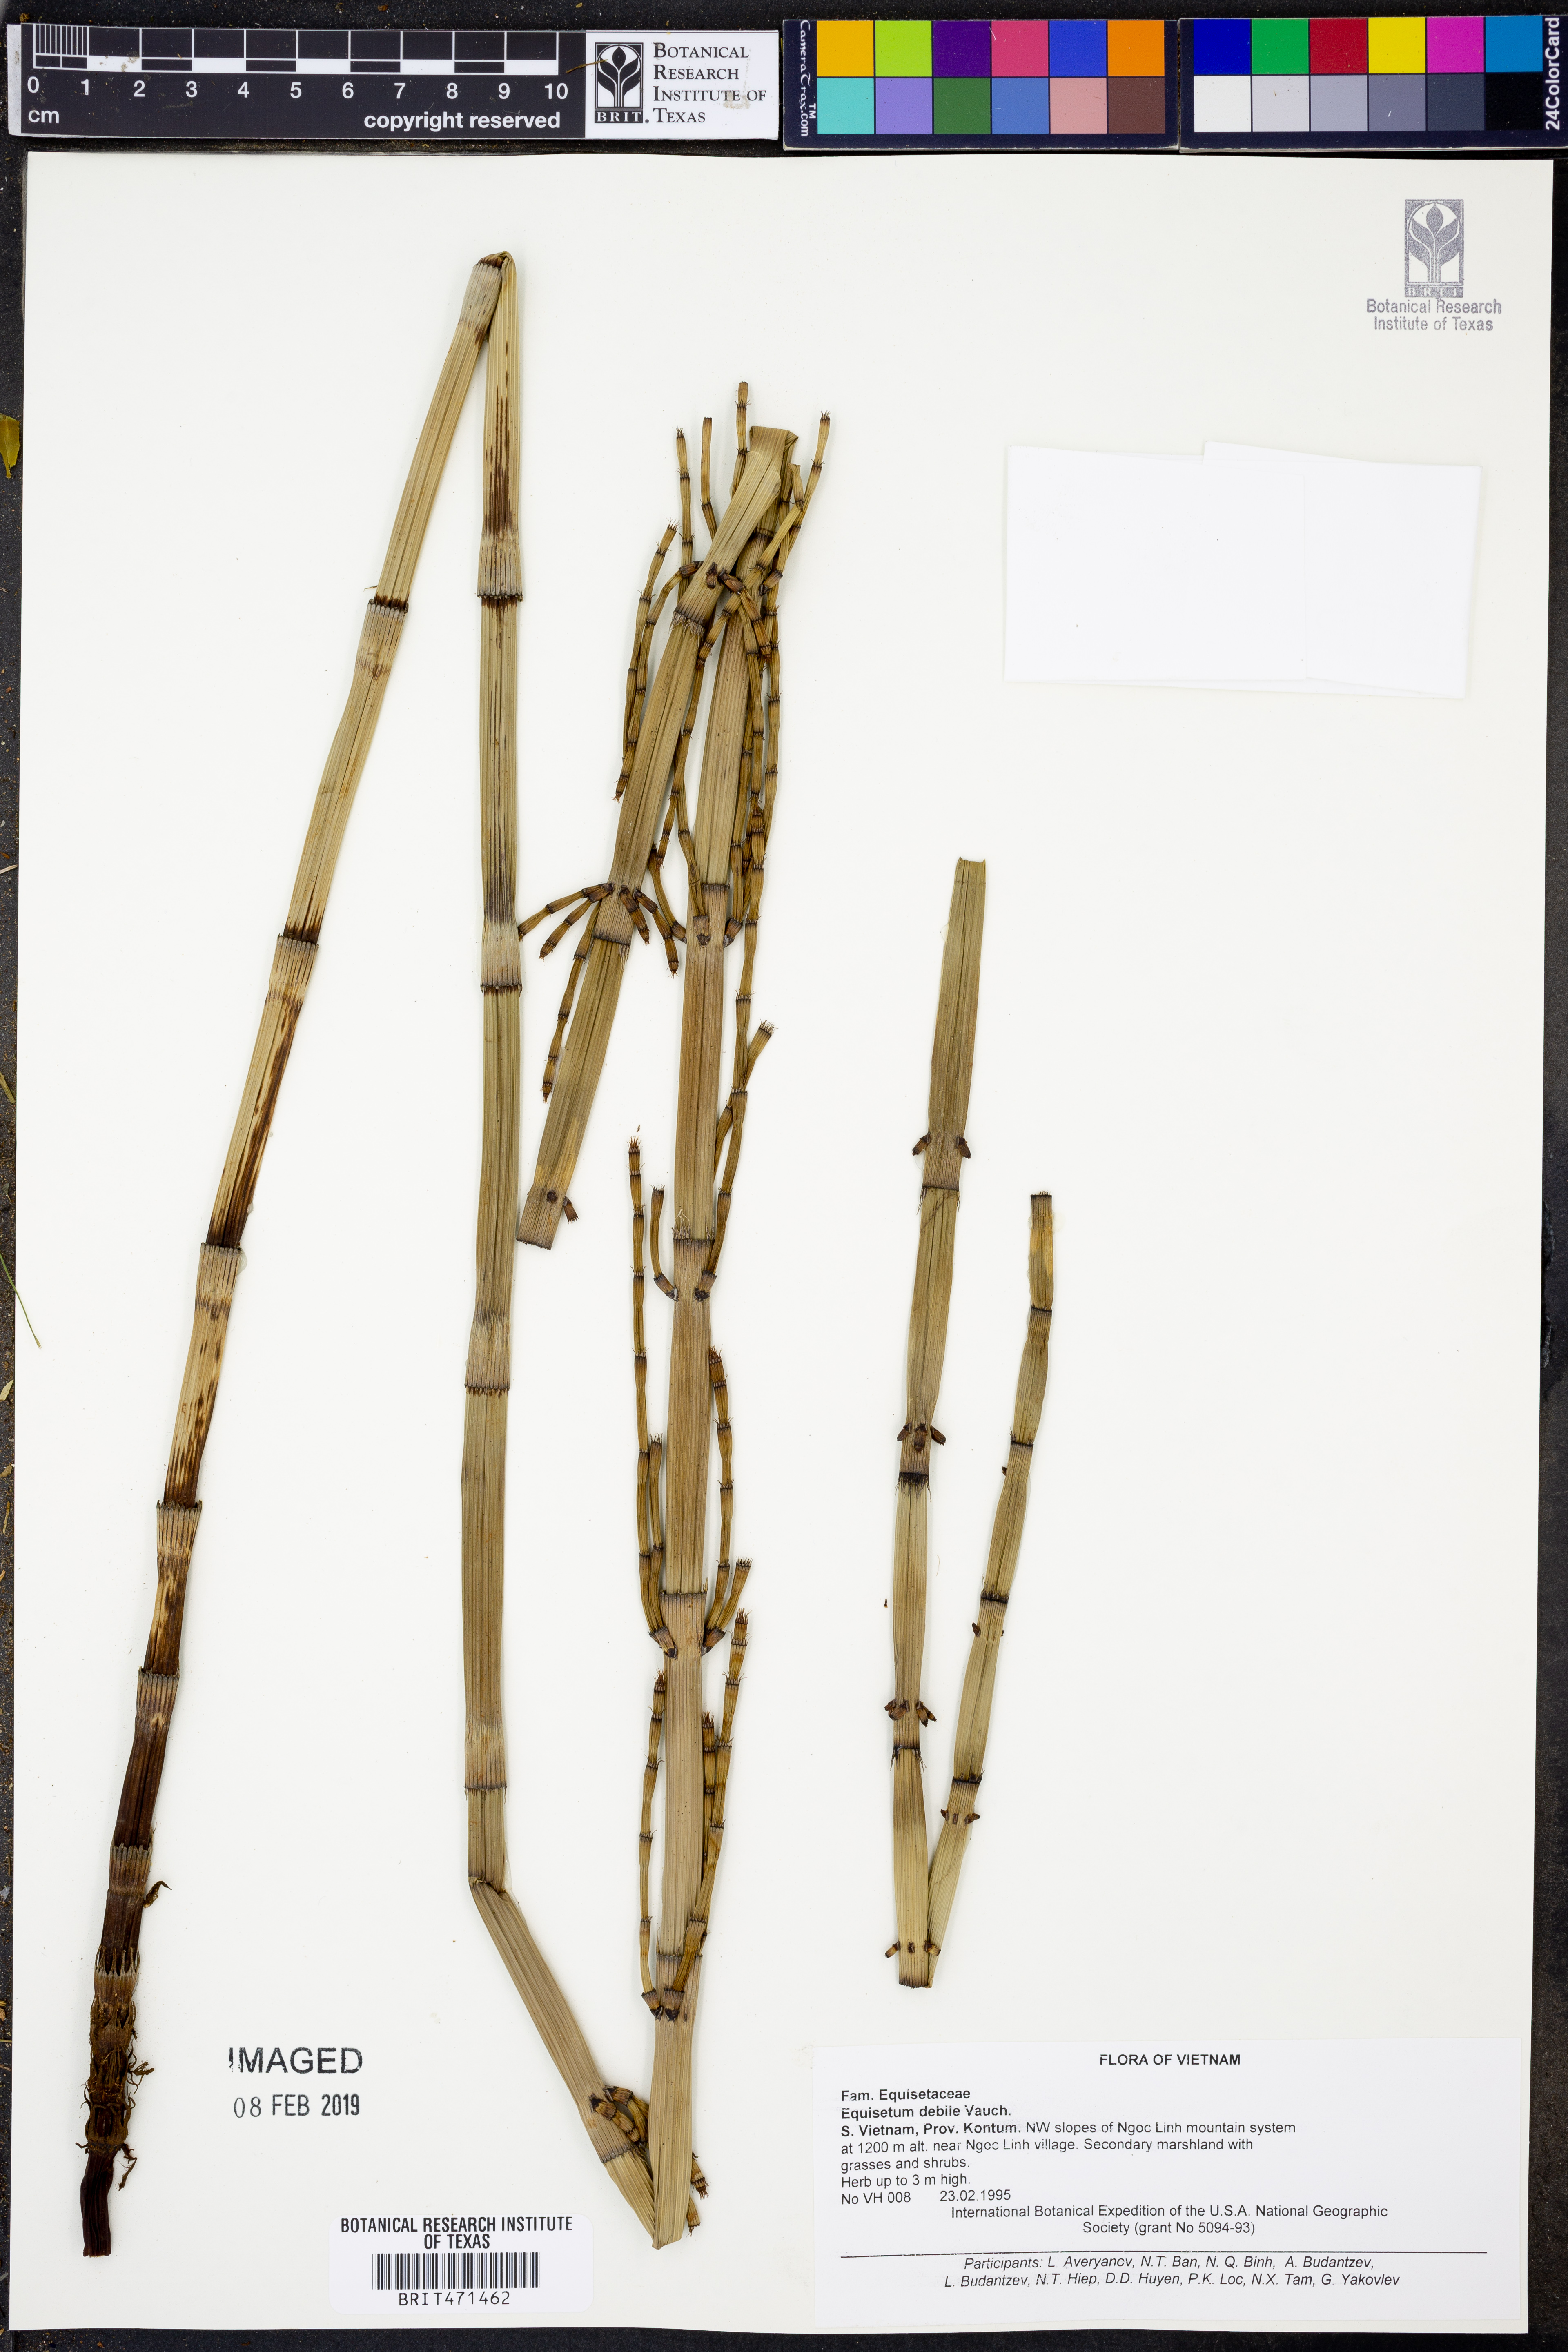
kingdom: Plantae
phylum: Tracheophyta
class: Polypodiopsida
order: Equisetales
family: Equisetaceae
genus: Equisetum
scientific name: Equisetum ramosissimum
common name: Branched horsetail
